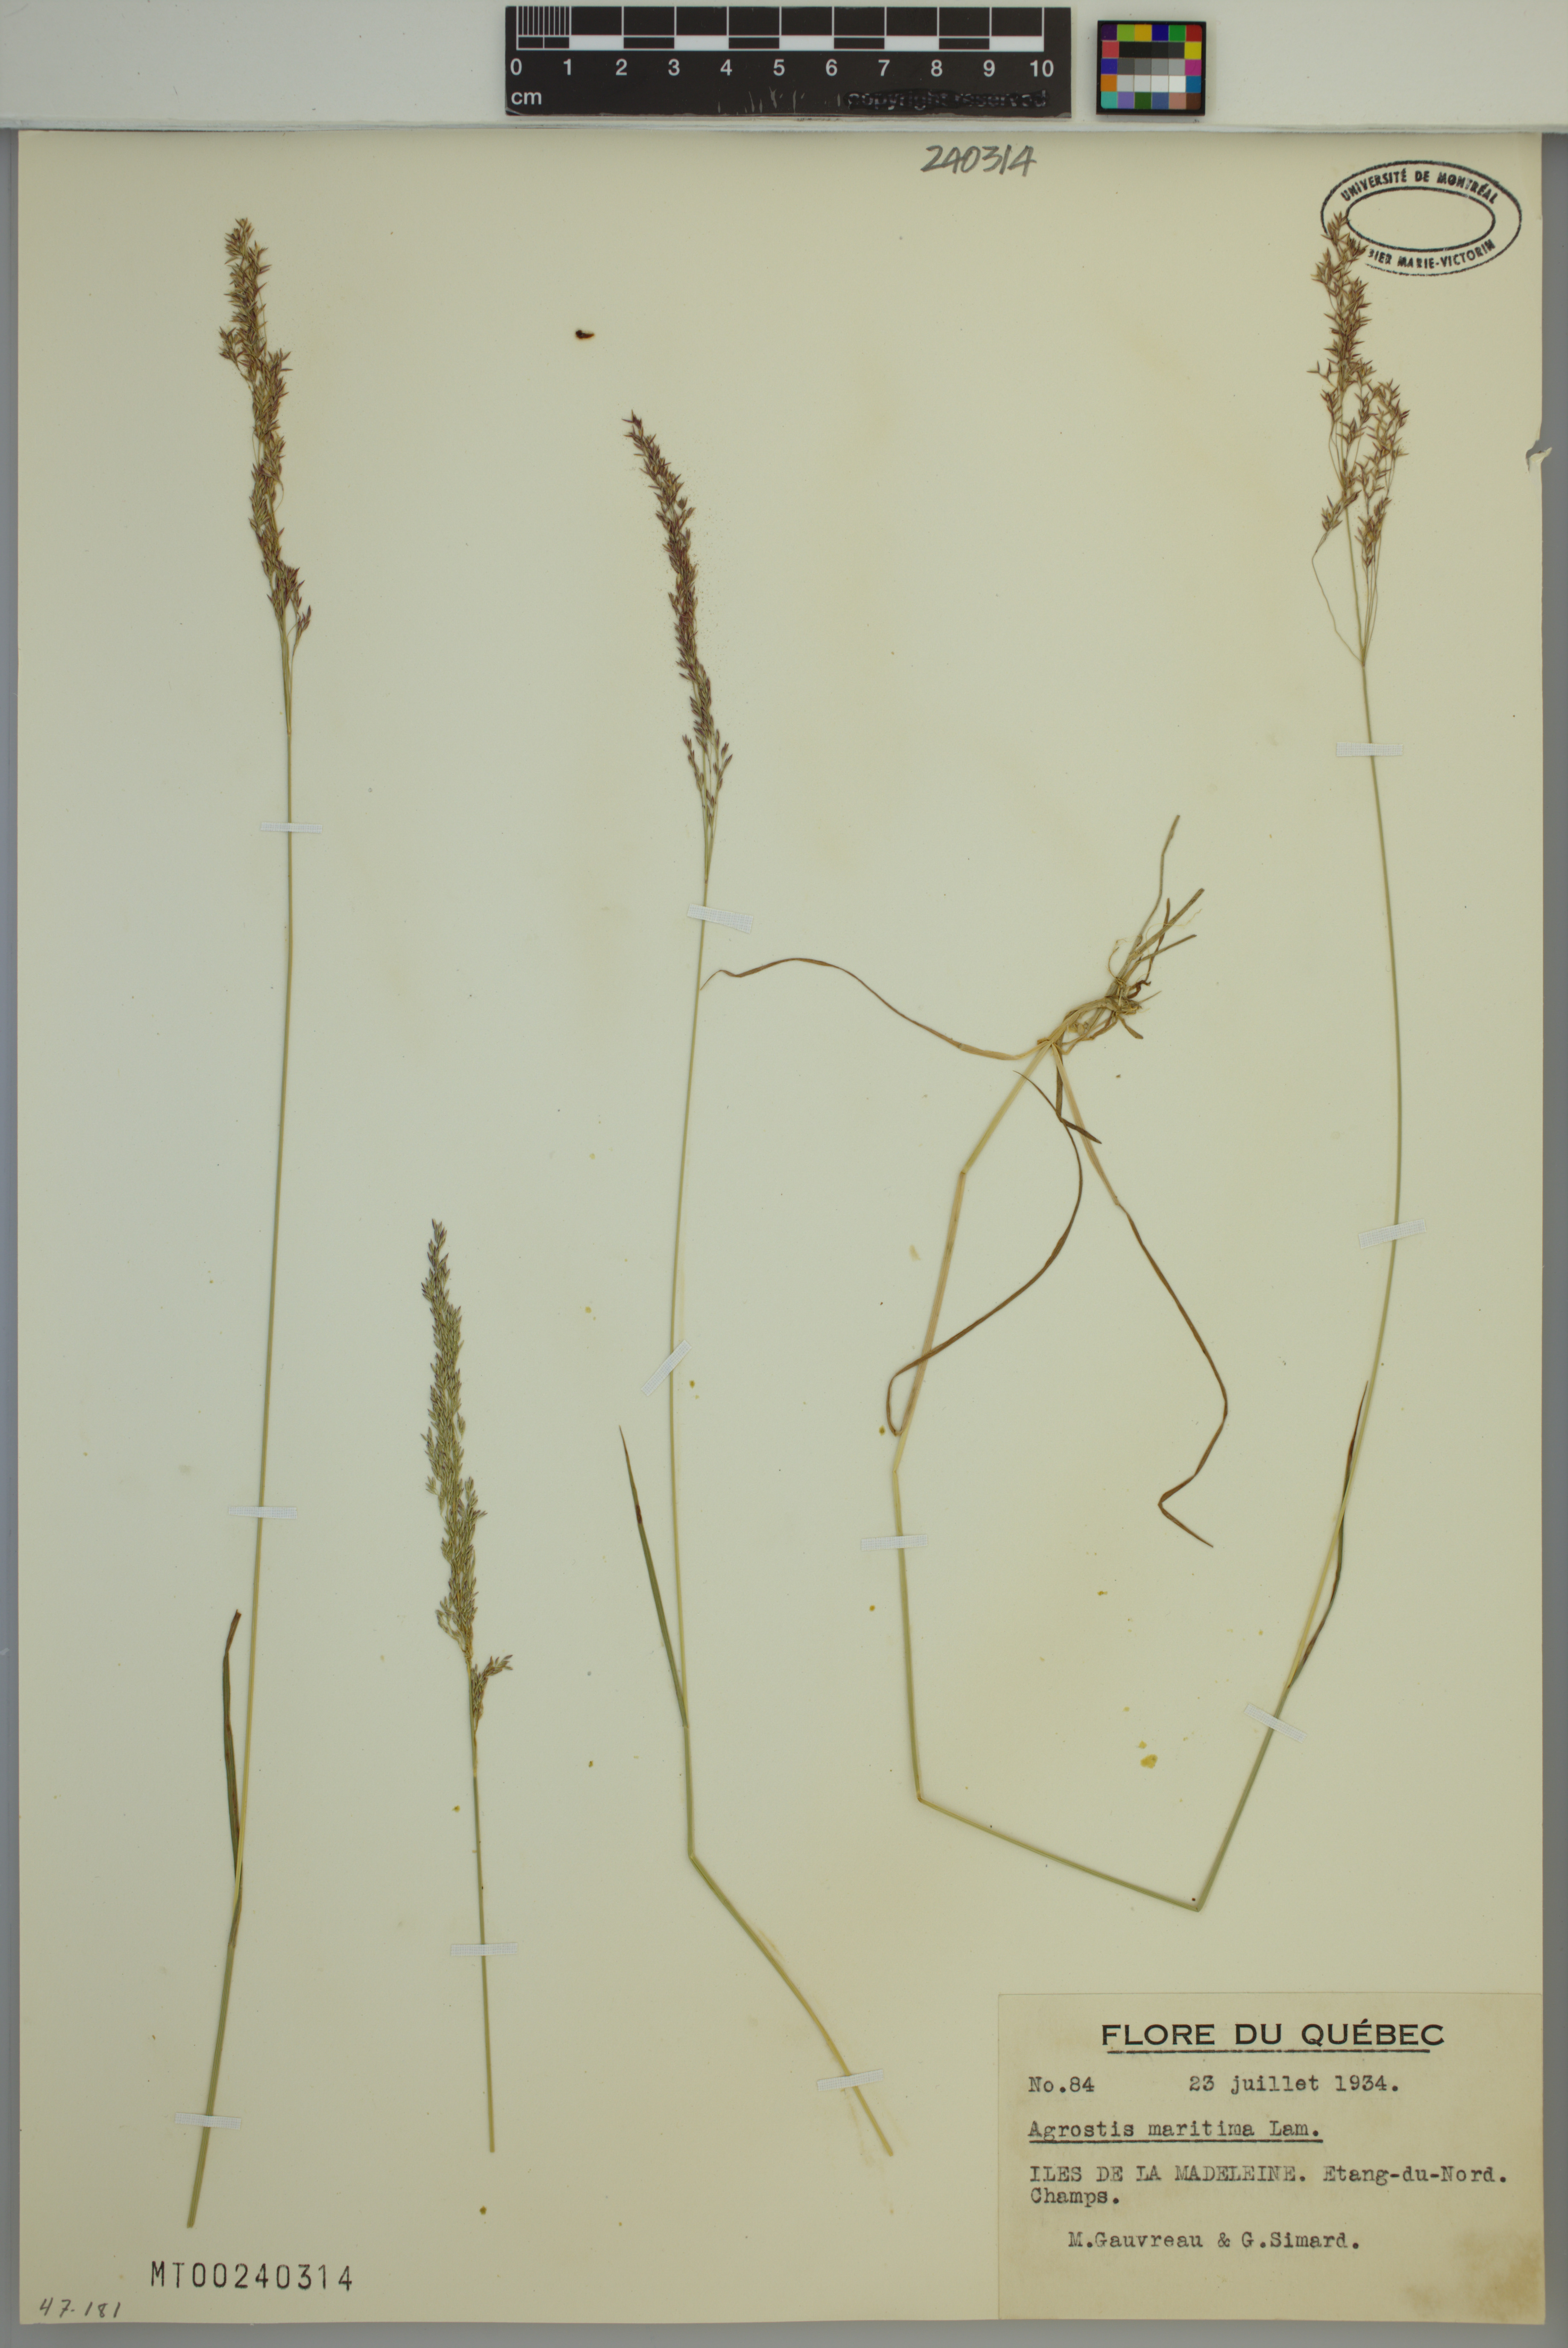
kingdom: Plantae
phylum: Tracheophyta
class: Liliopsida
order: Poales
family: Poaceae
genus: Agrostis
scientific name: Agrostis stolonifera
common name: Creeping bentgrass
